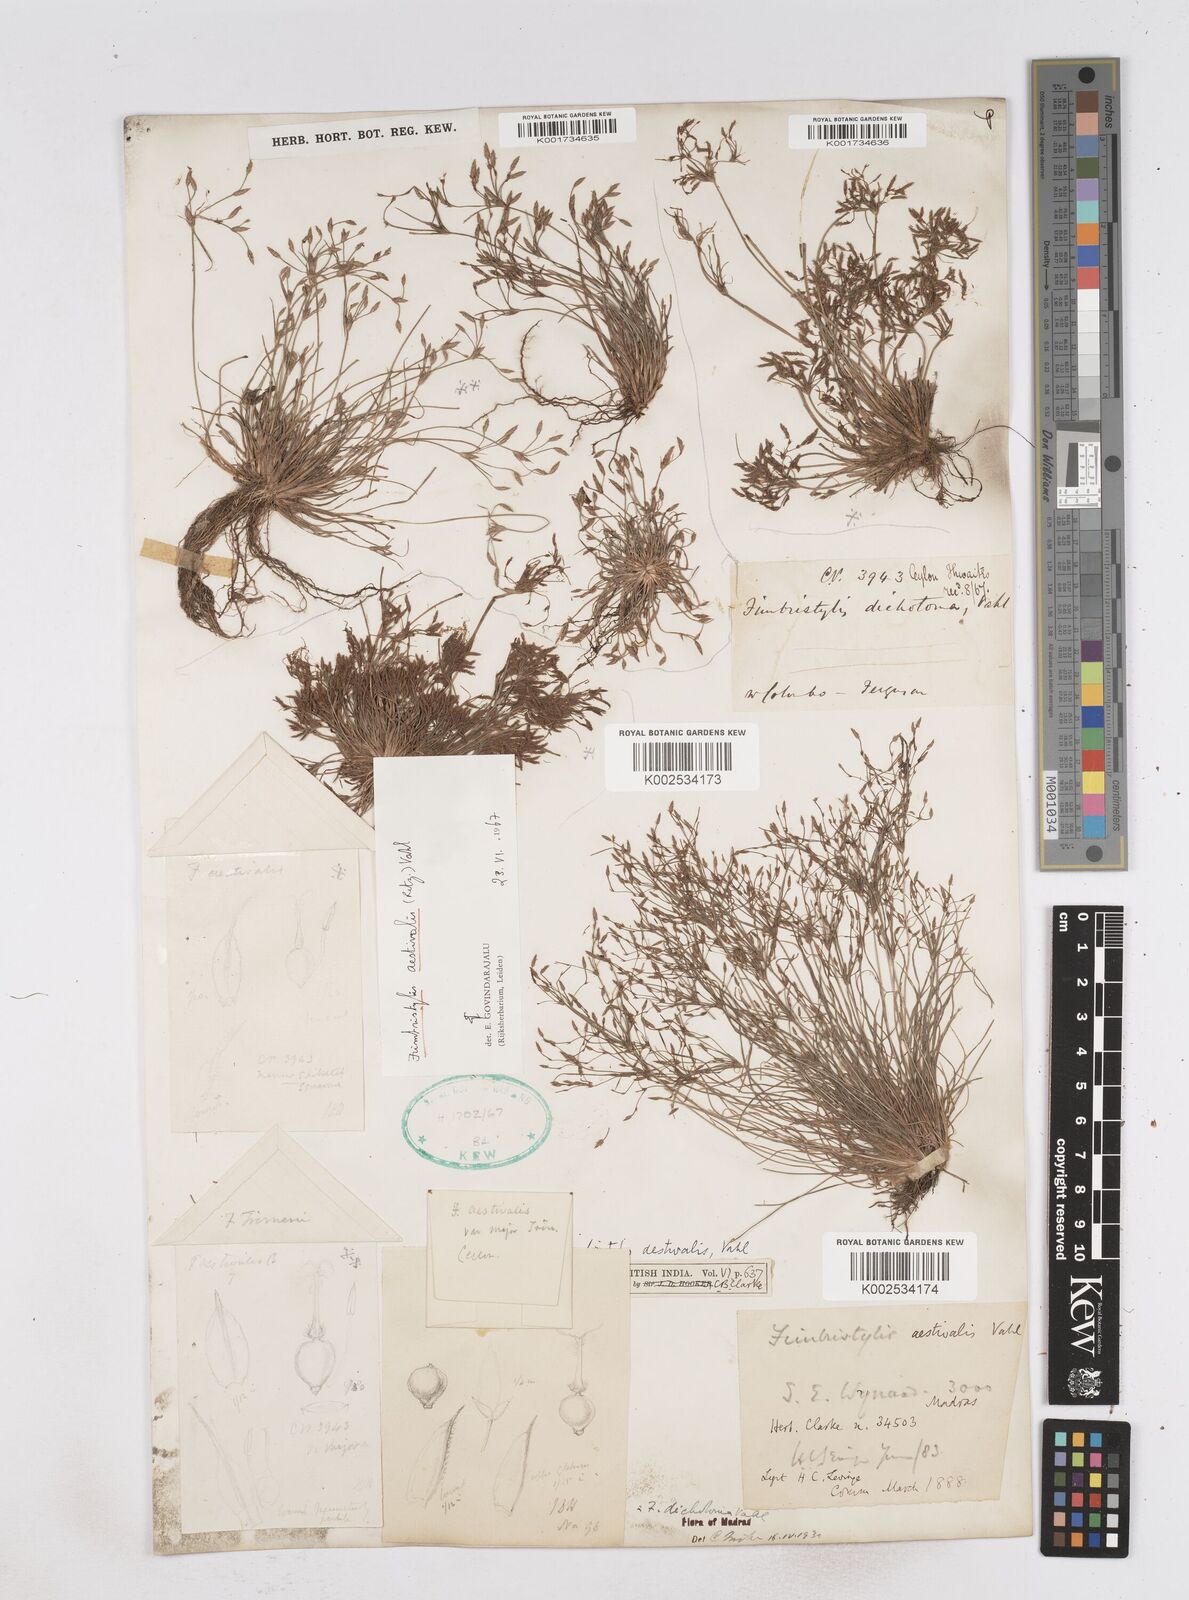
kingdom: Plantae
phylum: Tracheophyta
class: Liliopsida
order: Poales
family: Cyperaceae
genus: Fimbristylis
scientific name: Fimbristylis aestivalis
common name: Summer fimbry
